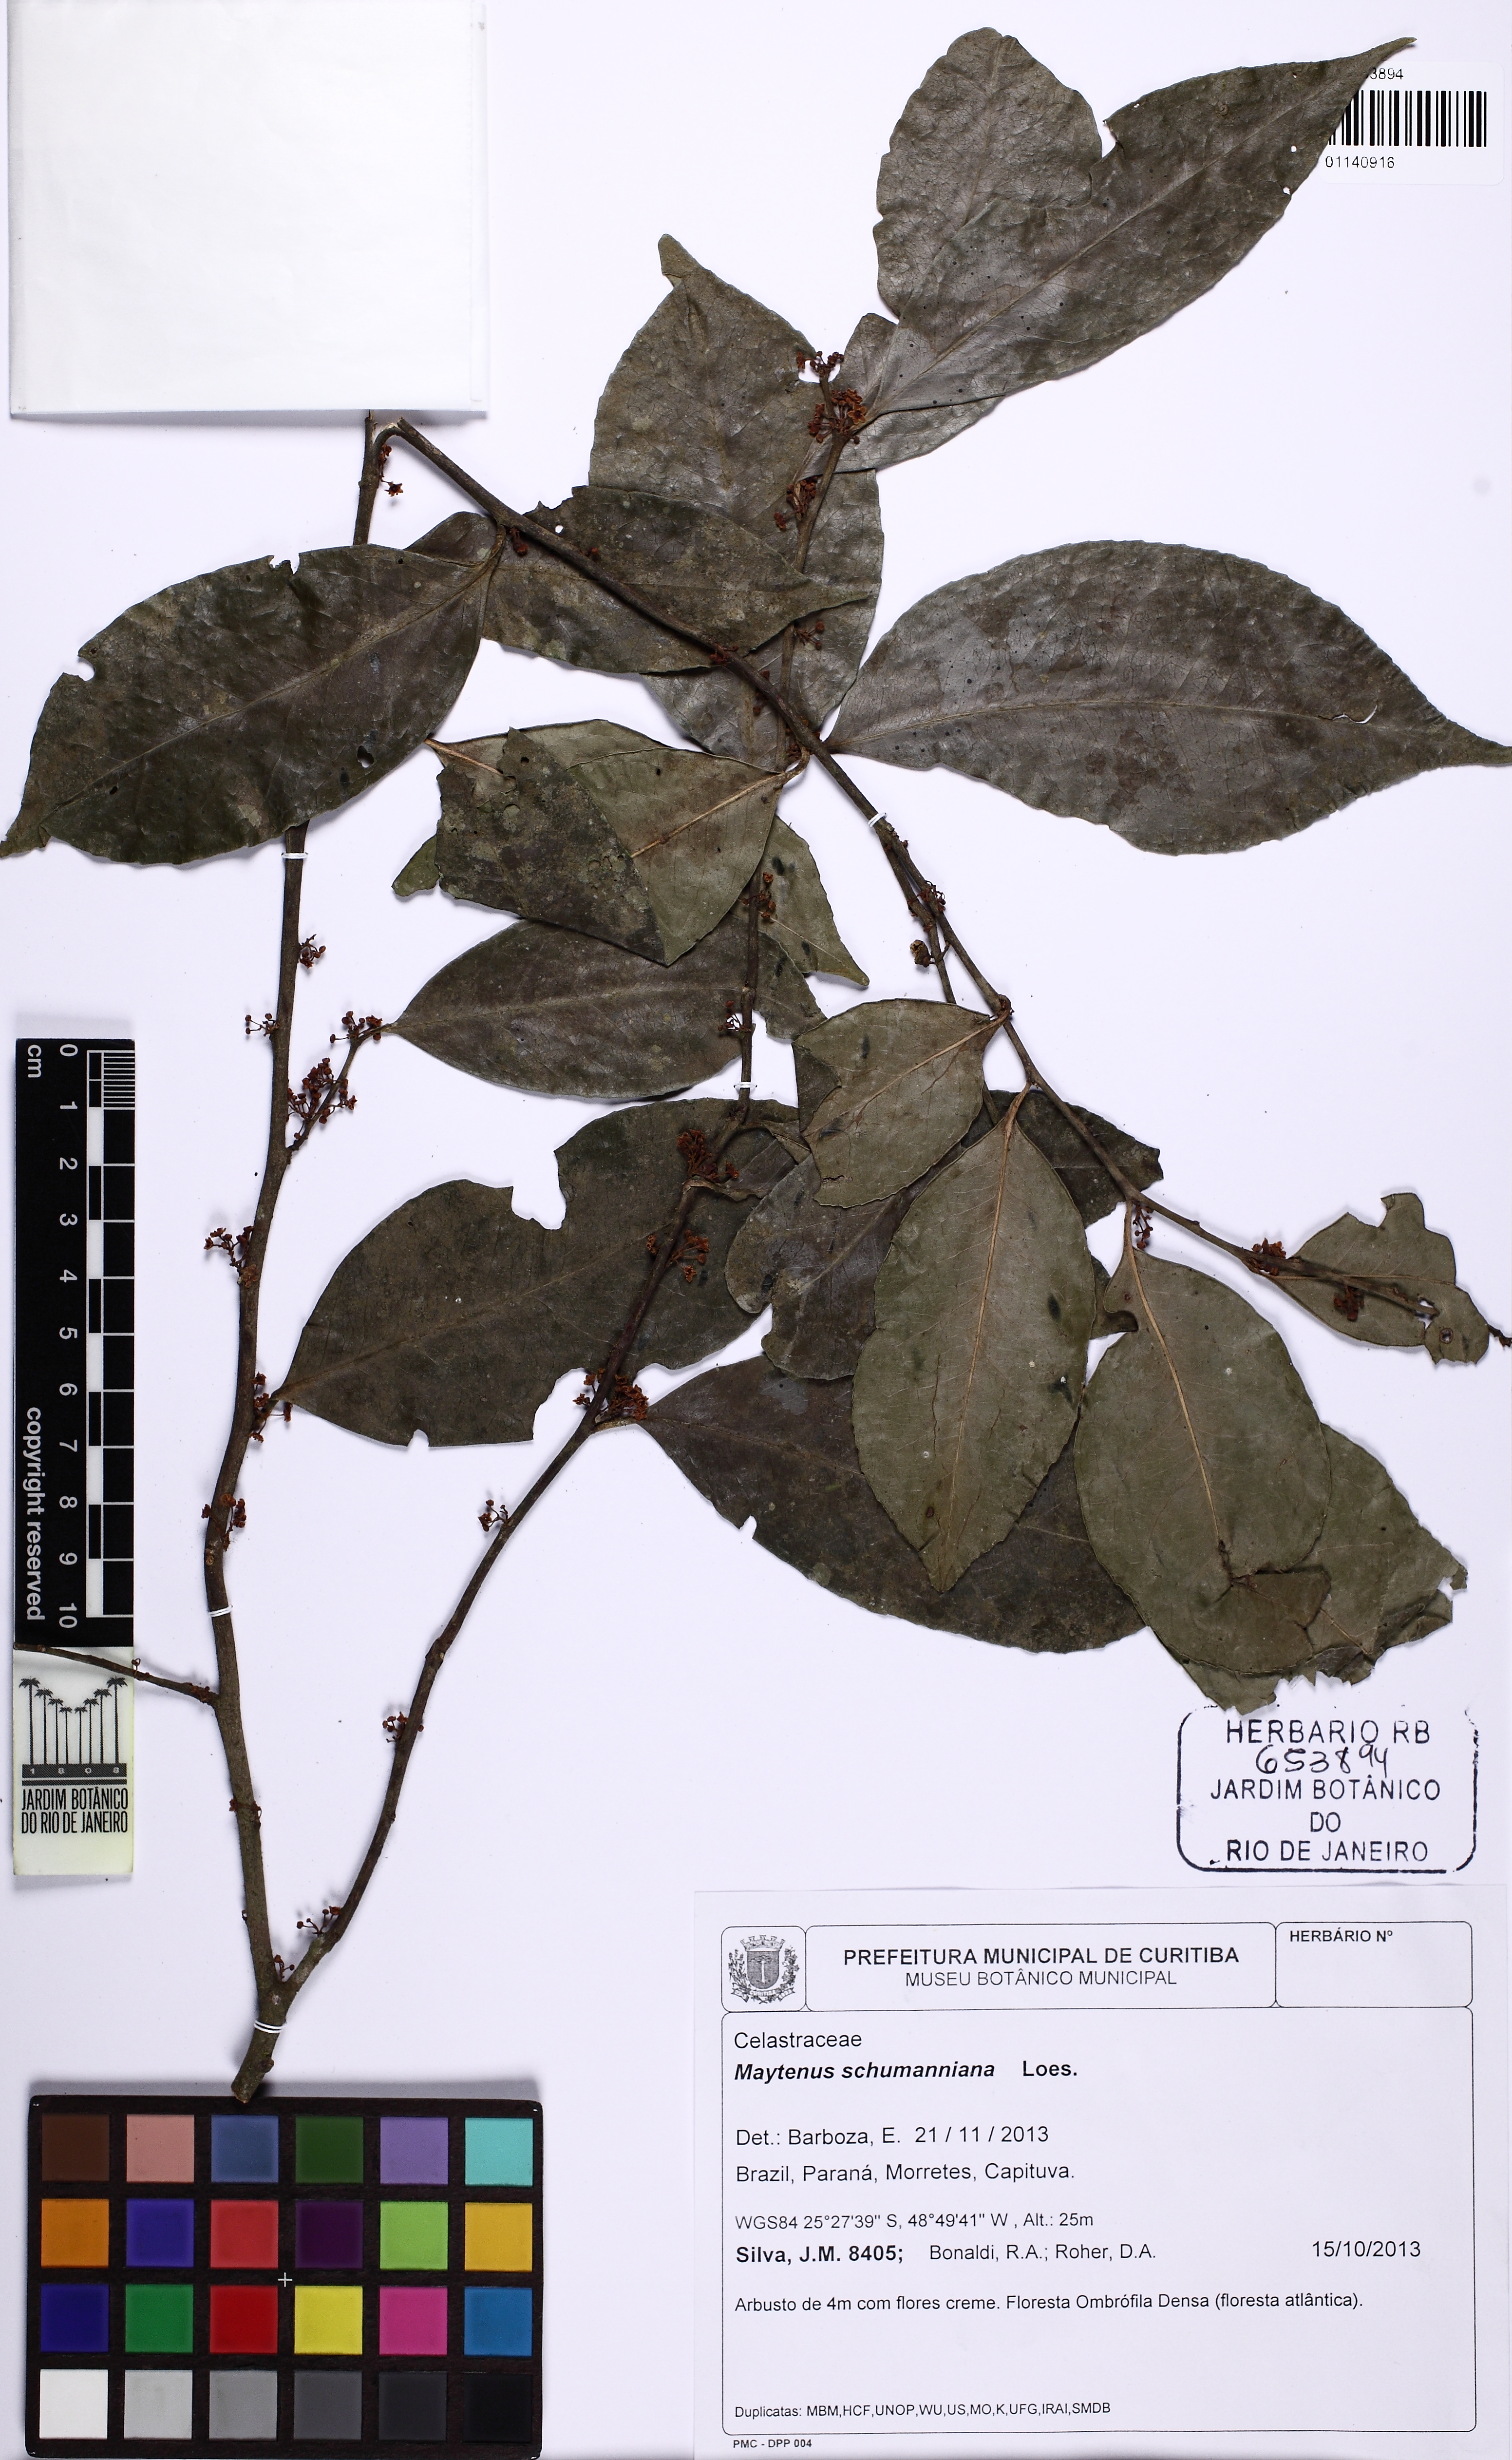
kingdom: Plantae
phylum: Tracheophyta
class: Magnoliopsida
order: Celastrales
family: Celastraceae
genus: Monteverdia
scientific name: Monteverdia schumanniana
